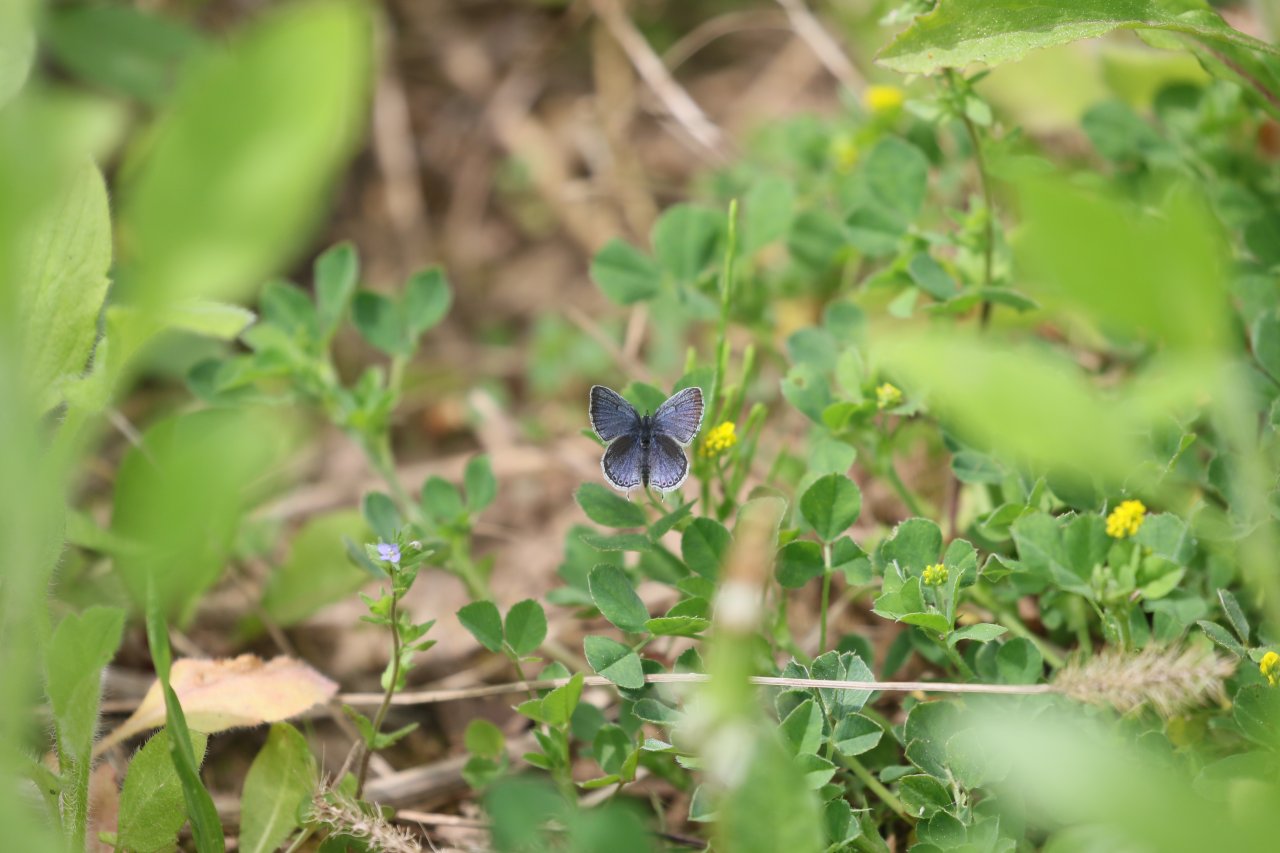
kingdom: Animalia
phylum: Arthropoda
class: Insecta
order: Lepidoptera
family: Lycaenidae
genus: Elkalyce
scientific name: Elkalyce comyntas
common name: Eastern Tailed-Blue
